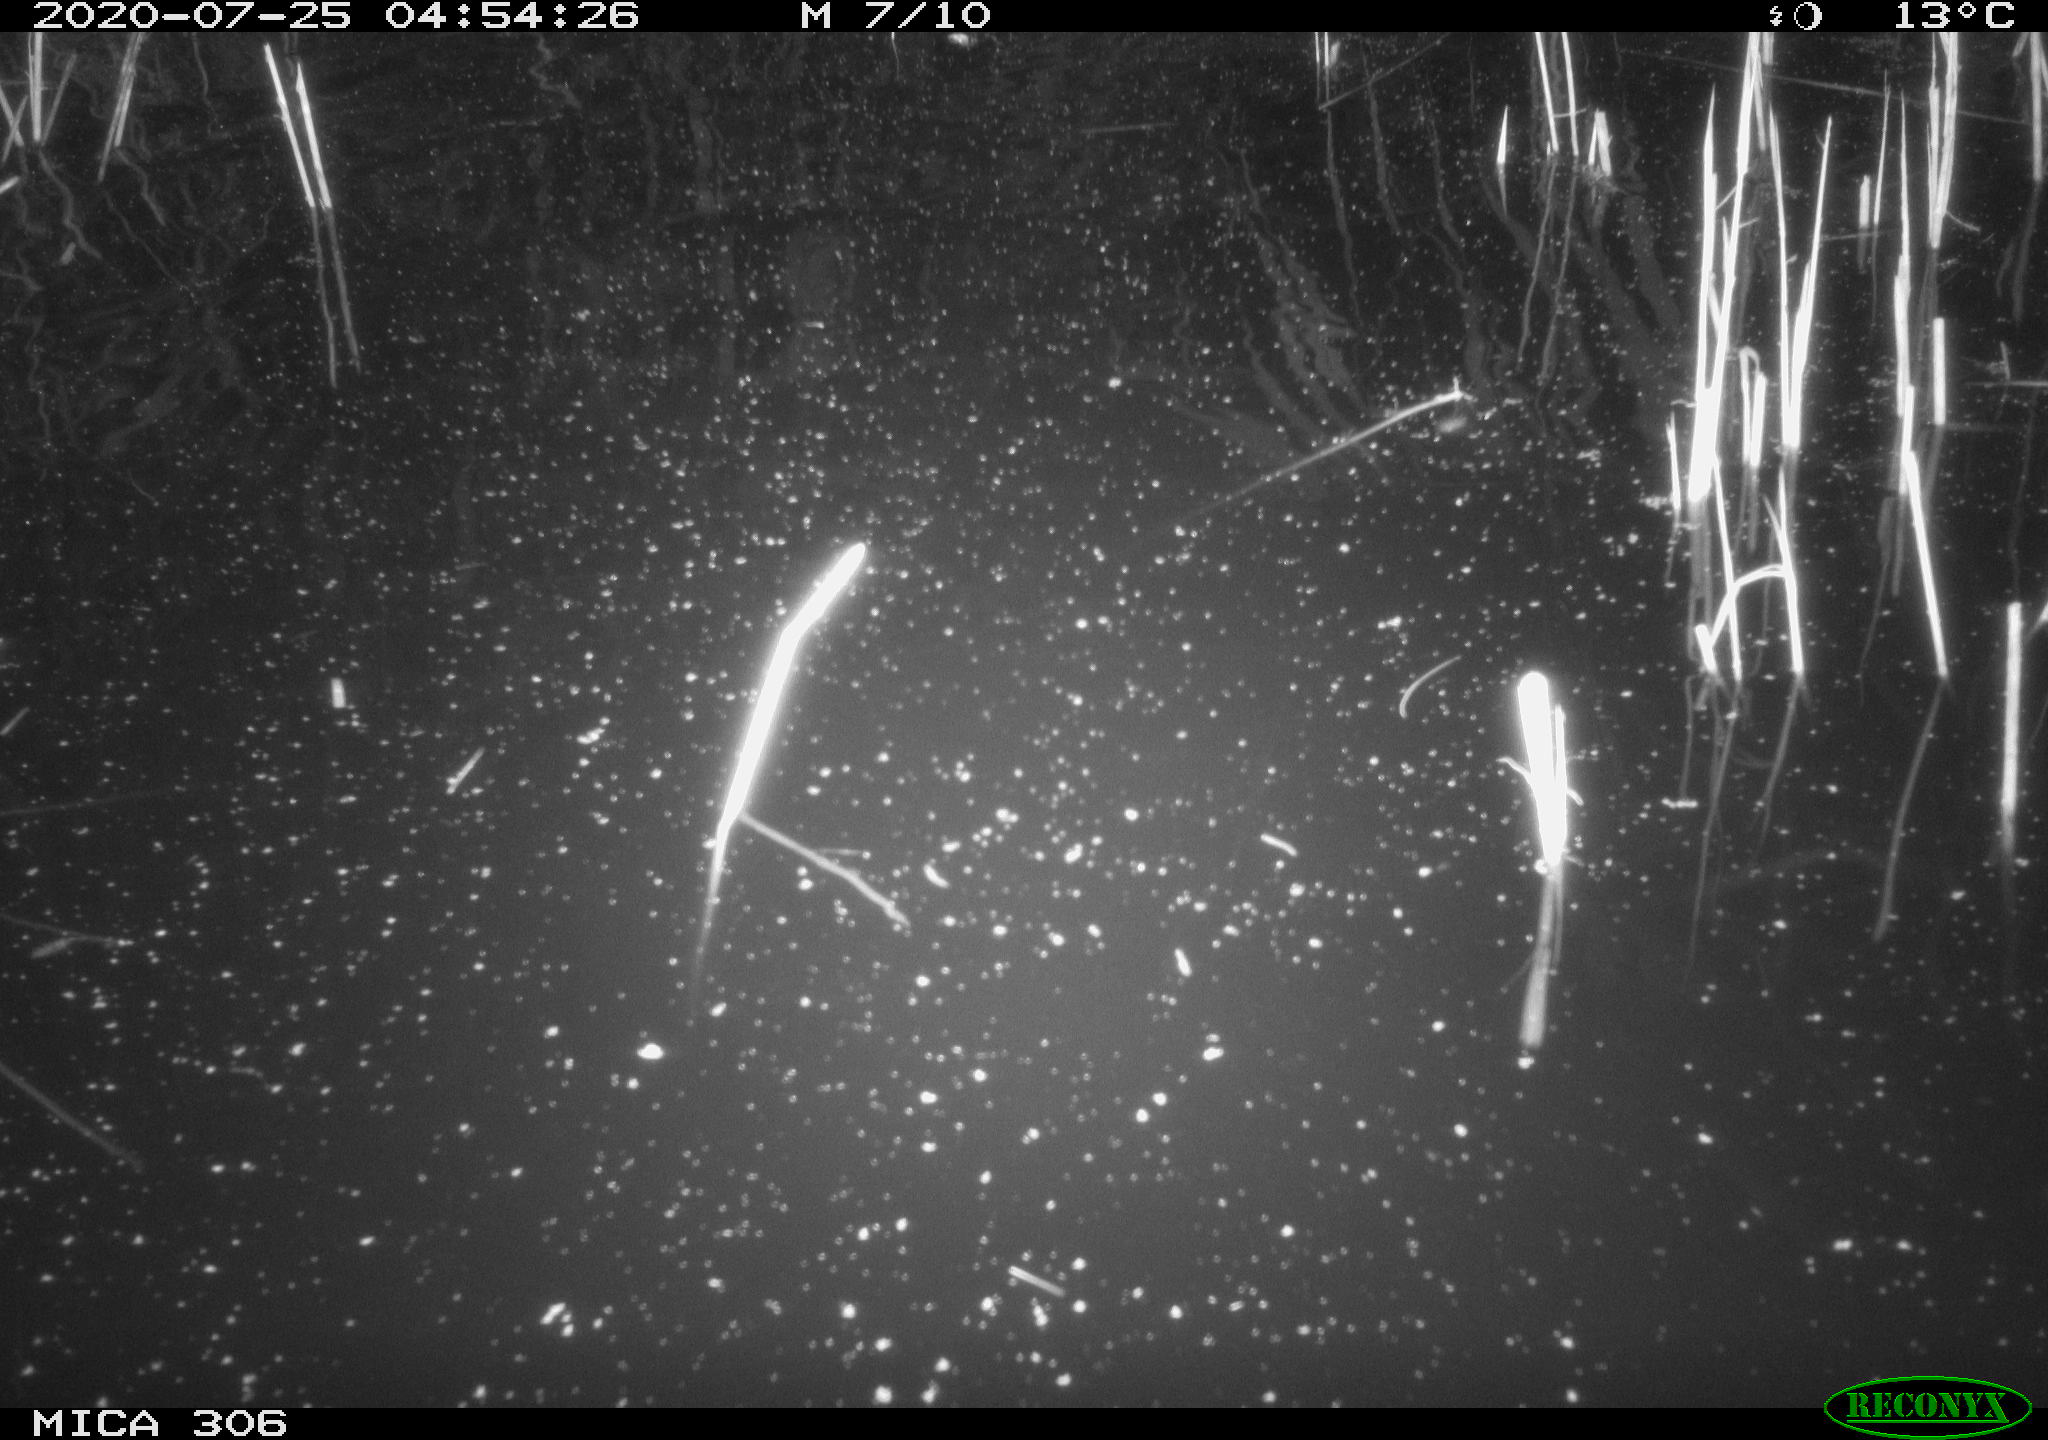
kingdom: Animalia
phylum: Chordata
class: Mammalia
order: Rodentia
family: Cricetidae
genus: Ondatra
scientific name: Ondatra zibethicus
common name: Muskrat
